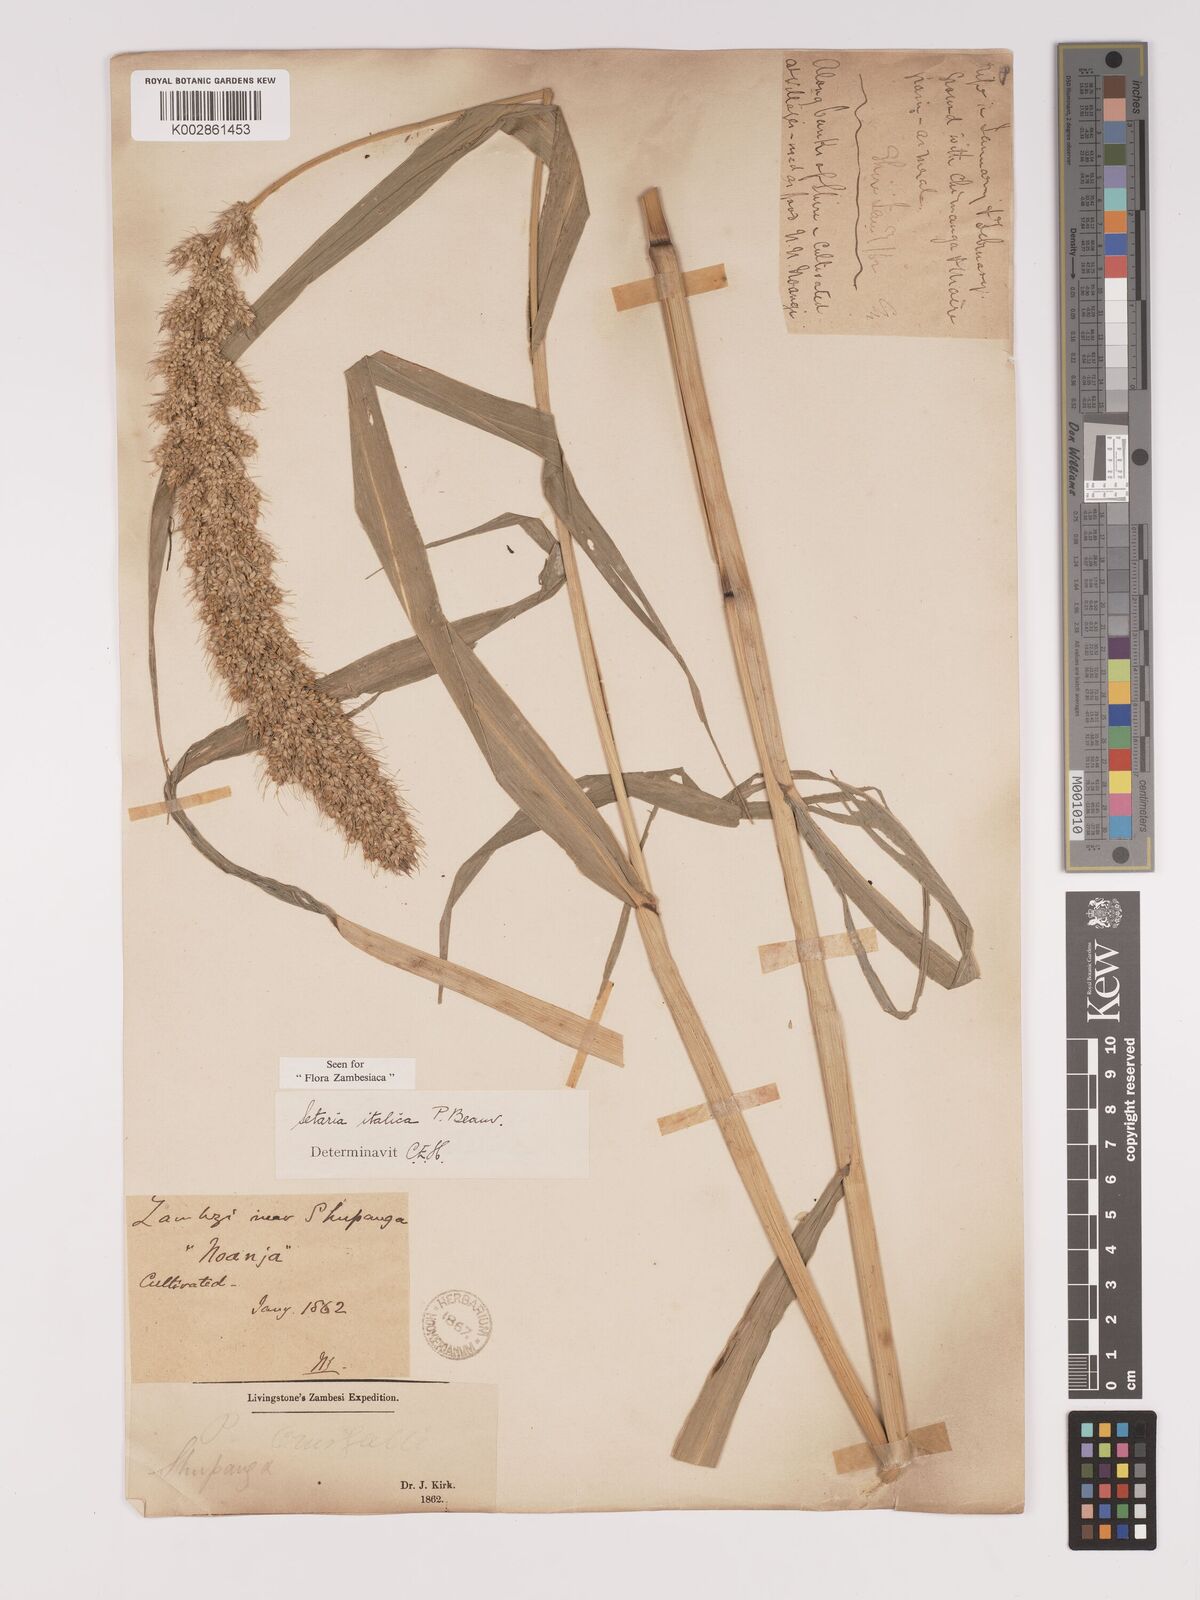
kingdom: Plantae
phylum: Tracheophyta
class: Liliopsida
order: Poales
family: Poaceae
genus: Setaria
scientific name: Setaria italica
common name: Foxtail bristle-grass
